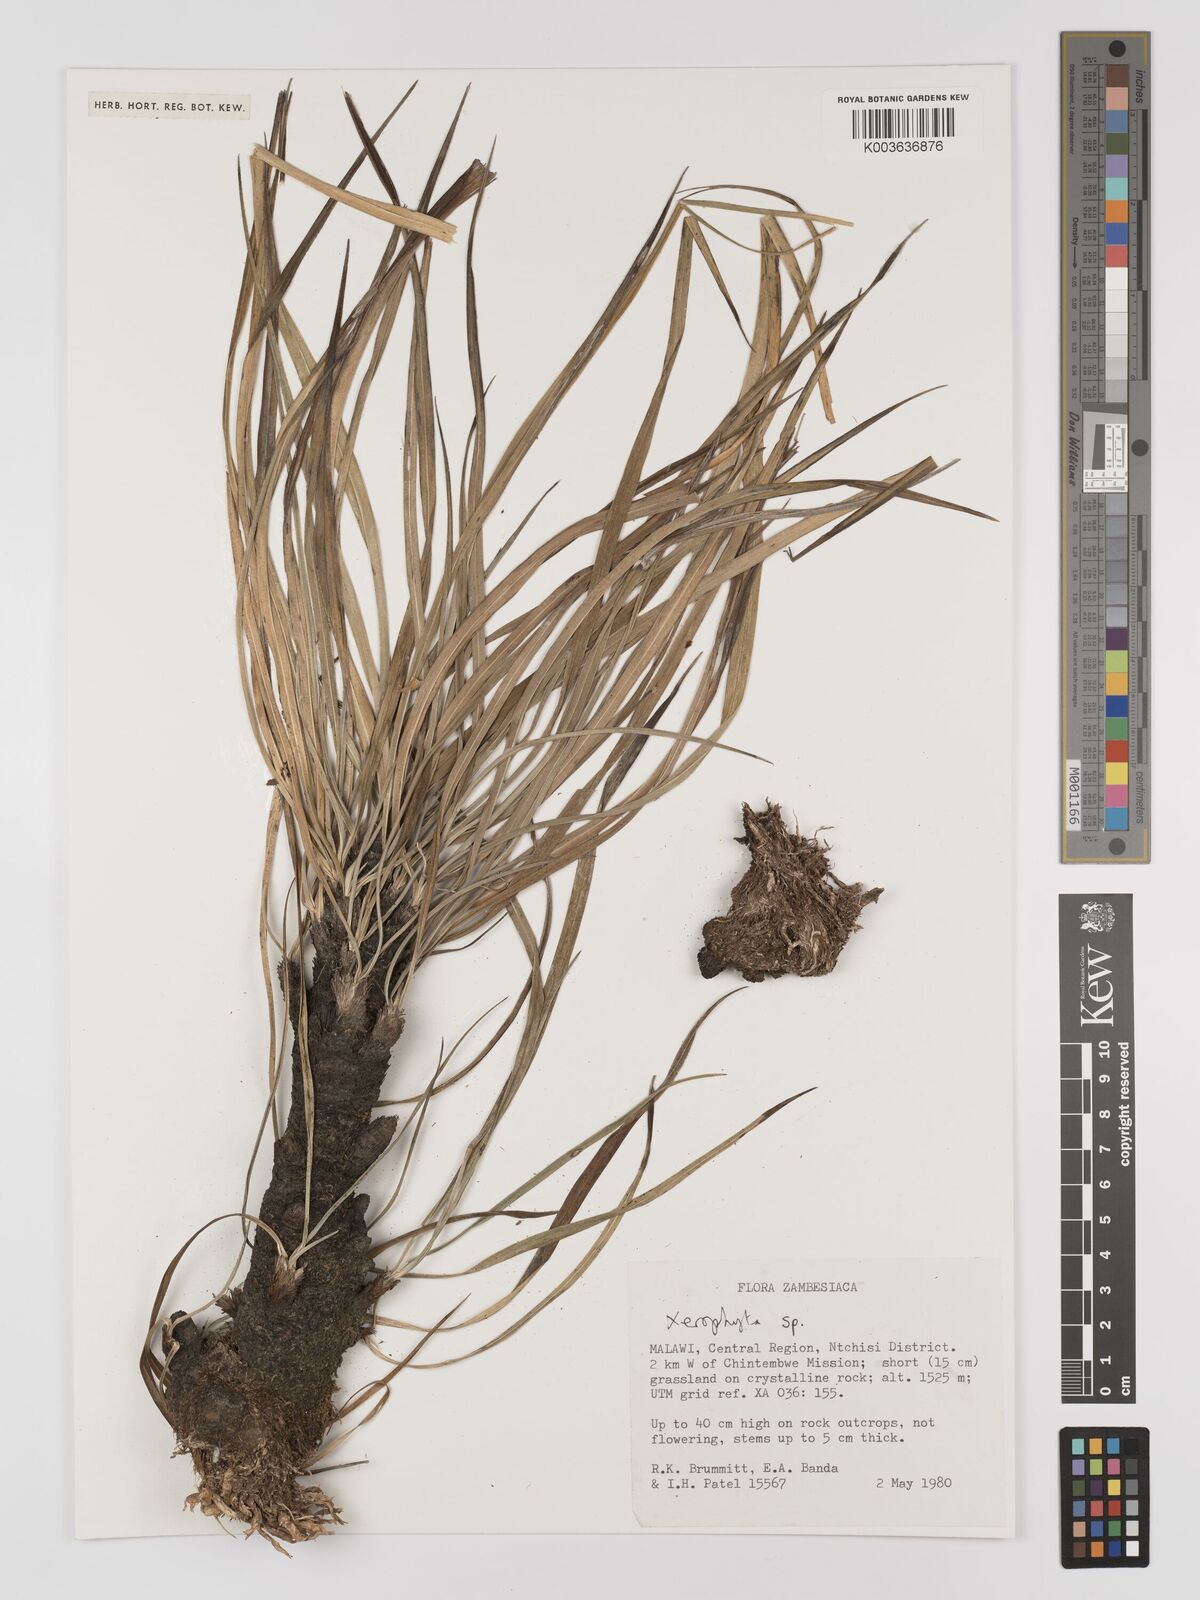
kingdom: Plantae
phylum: Tracheophyta
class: Liliopsida
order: Pandanales
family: Velloziaceae
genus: Xerophyta
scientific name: Xerophyta
